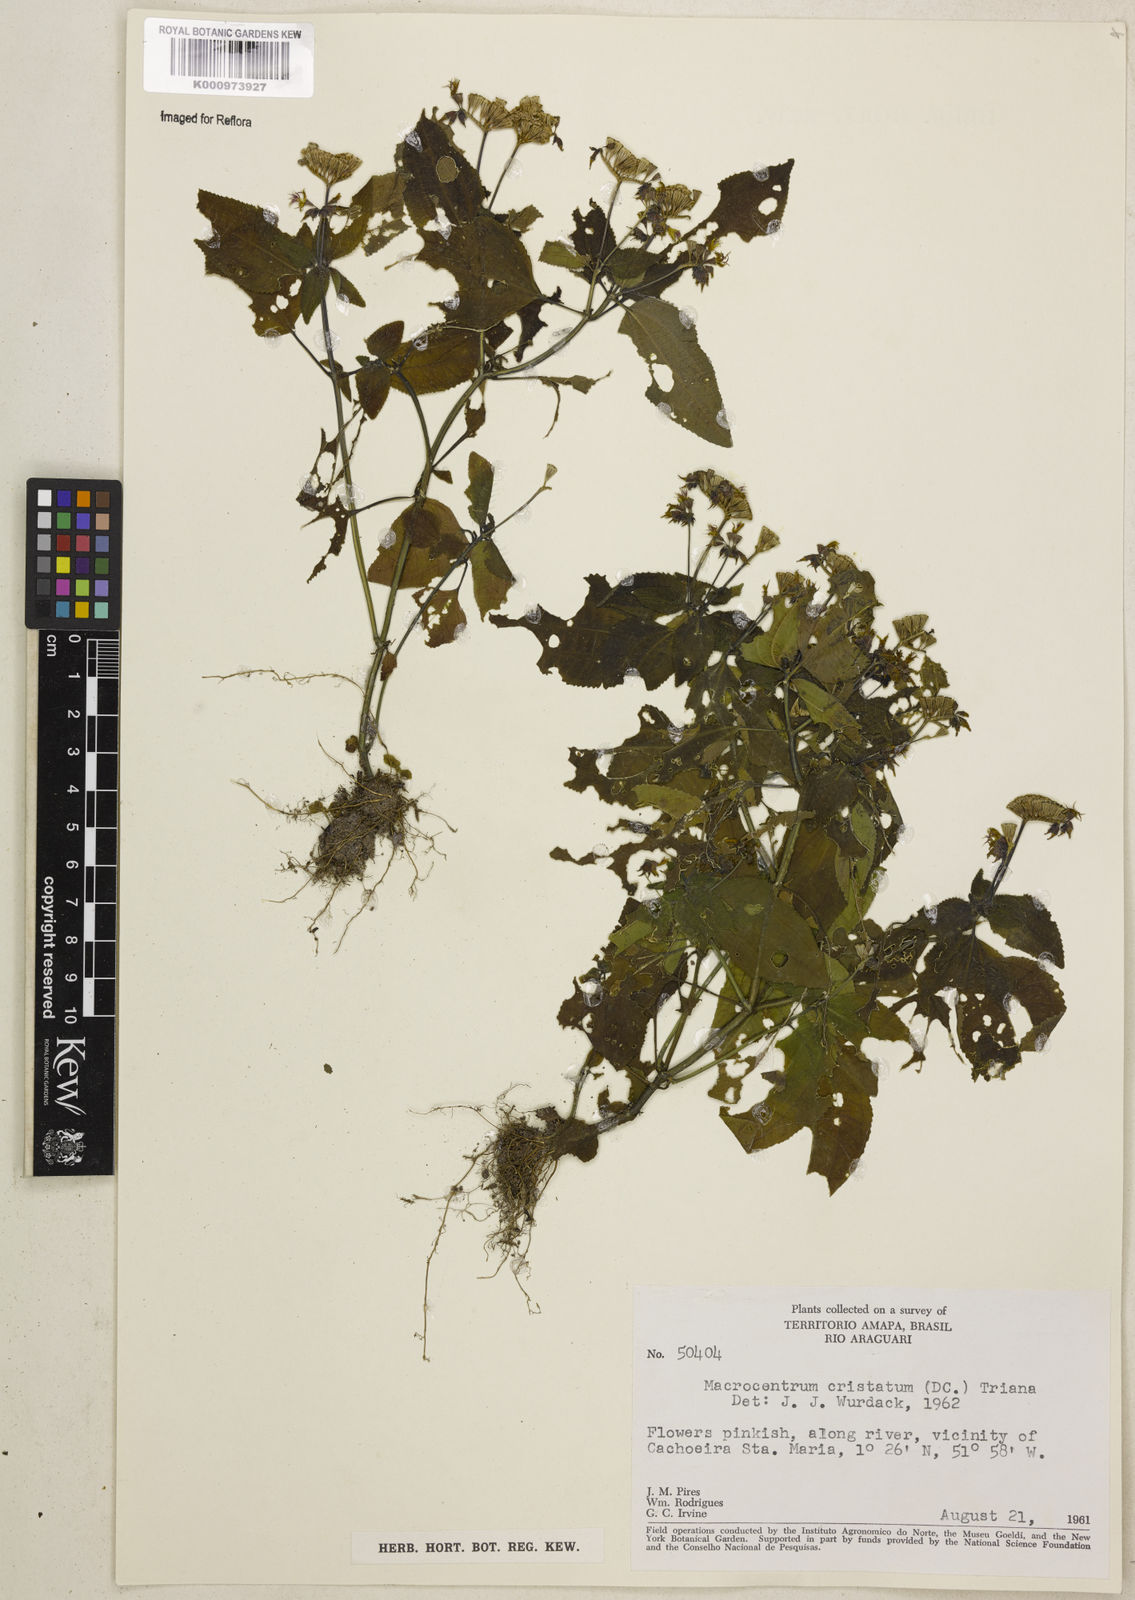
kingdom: Plantae
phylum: Tracheophyta
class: Magnoliopsida
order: Myrtales
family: Melastomataceae
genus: Macrocentrum
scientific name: Macrocentrum cristatum
